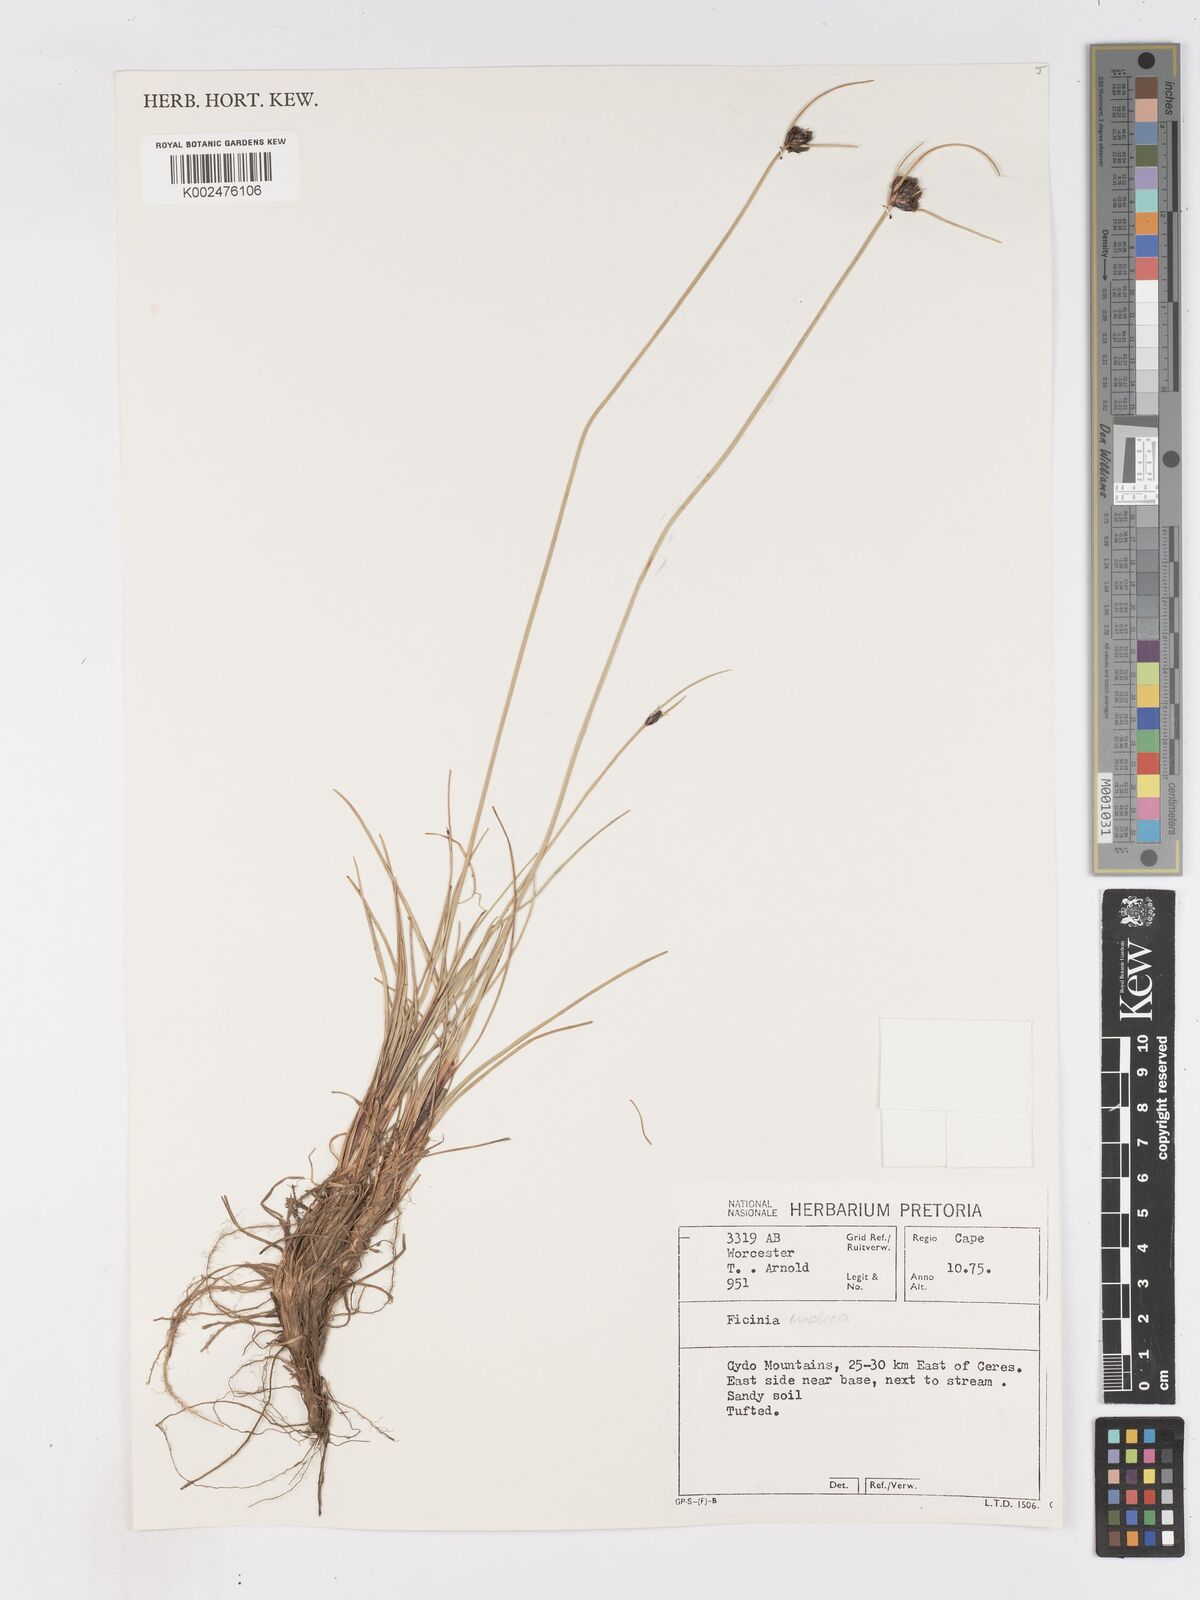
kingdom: Plantae
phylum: Tracheophyta
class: Liliopsida
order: Poales
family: Cyperaceae
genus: Ficinia
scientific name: Ficinia indica
